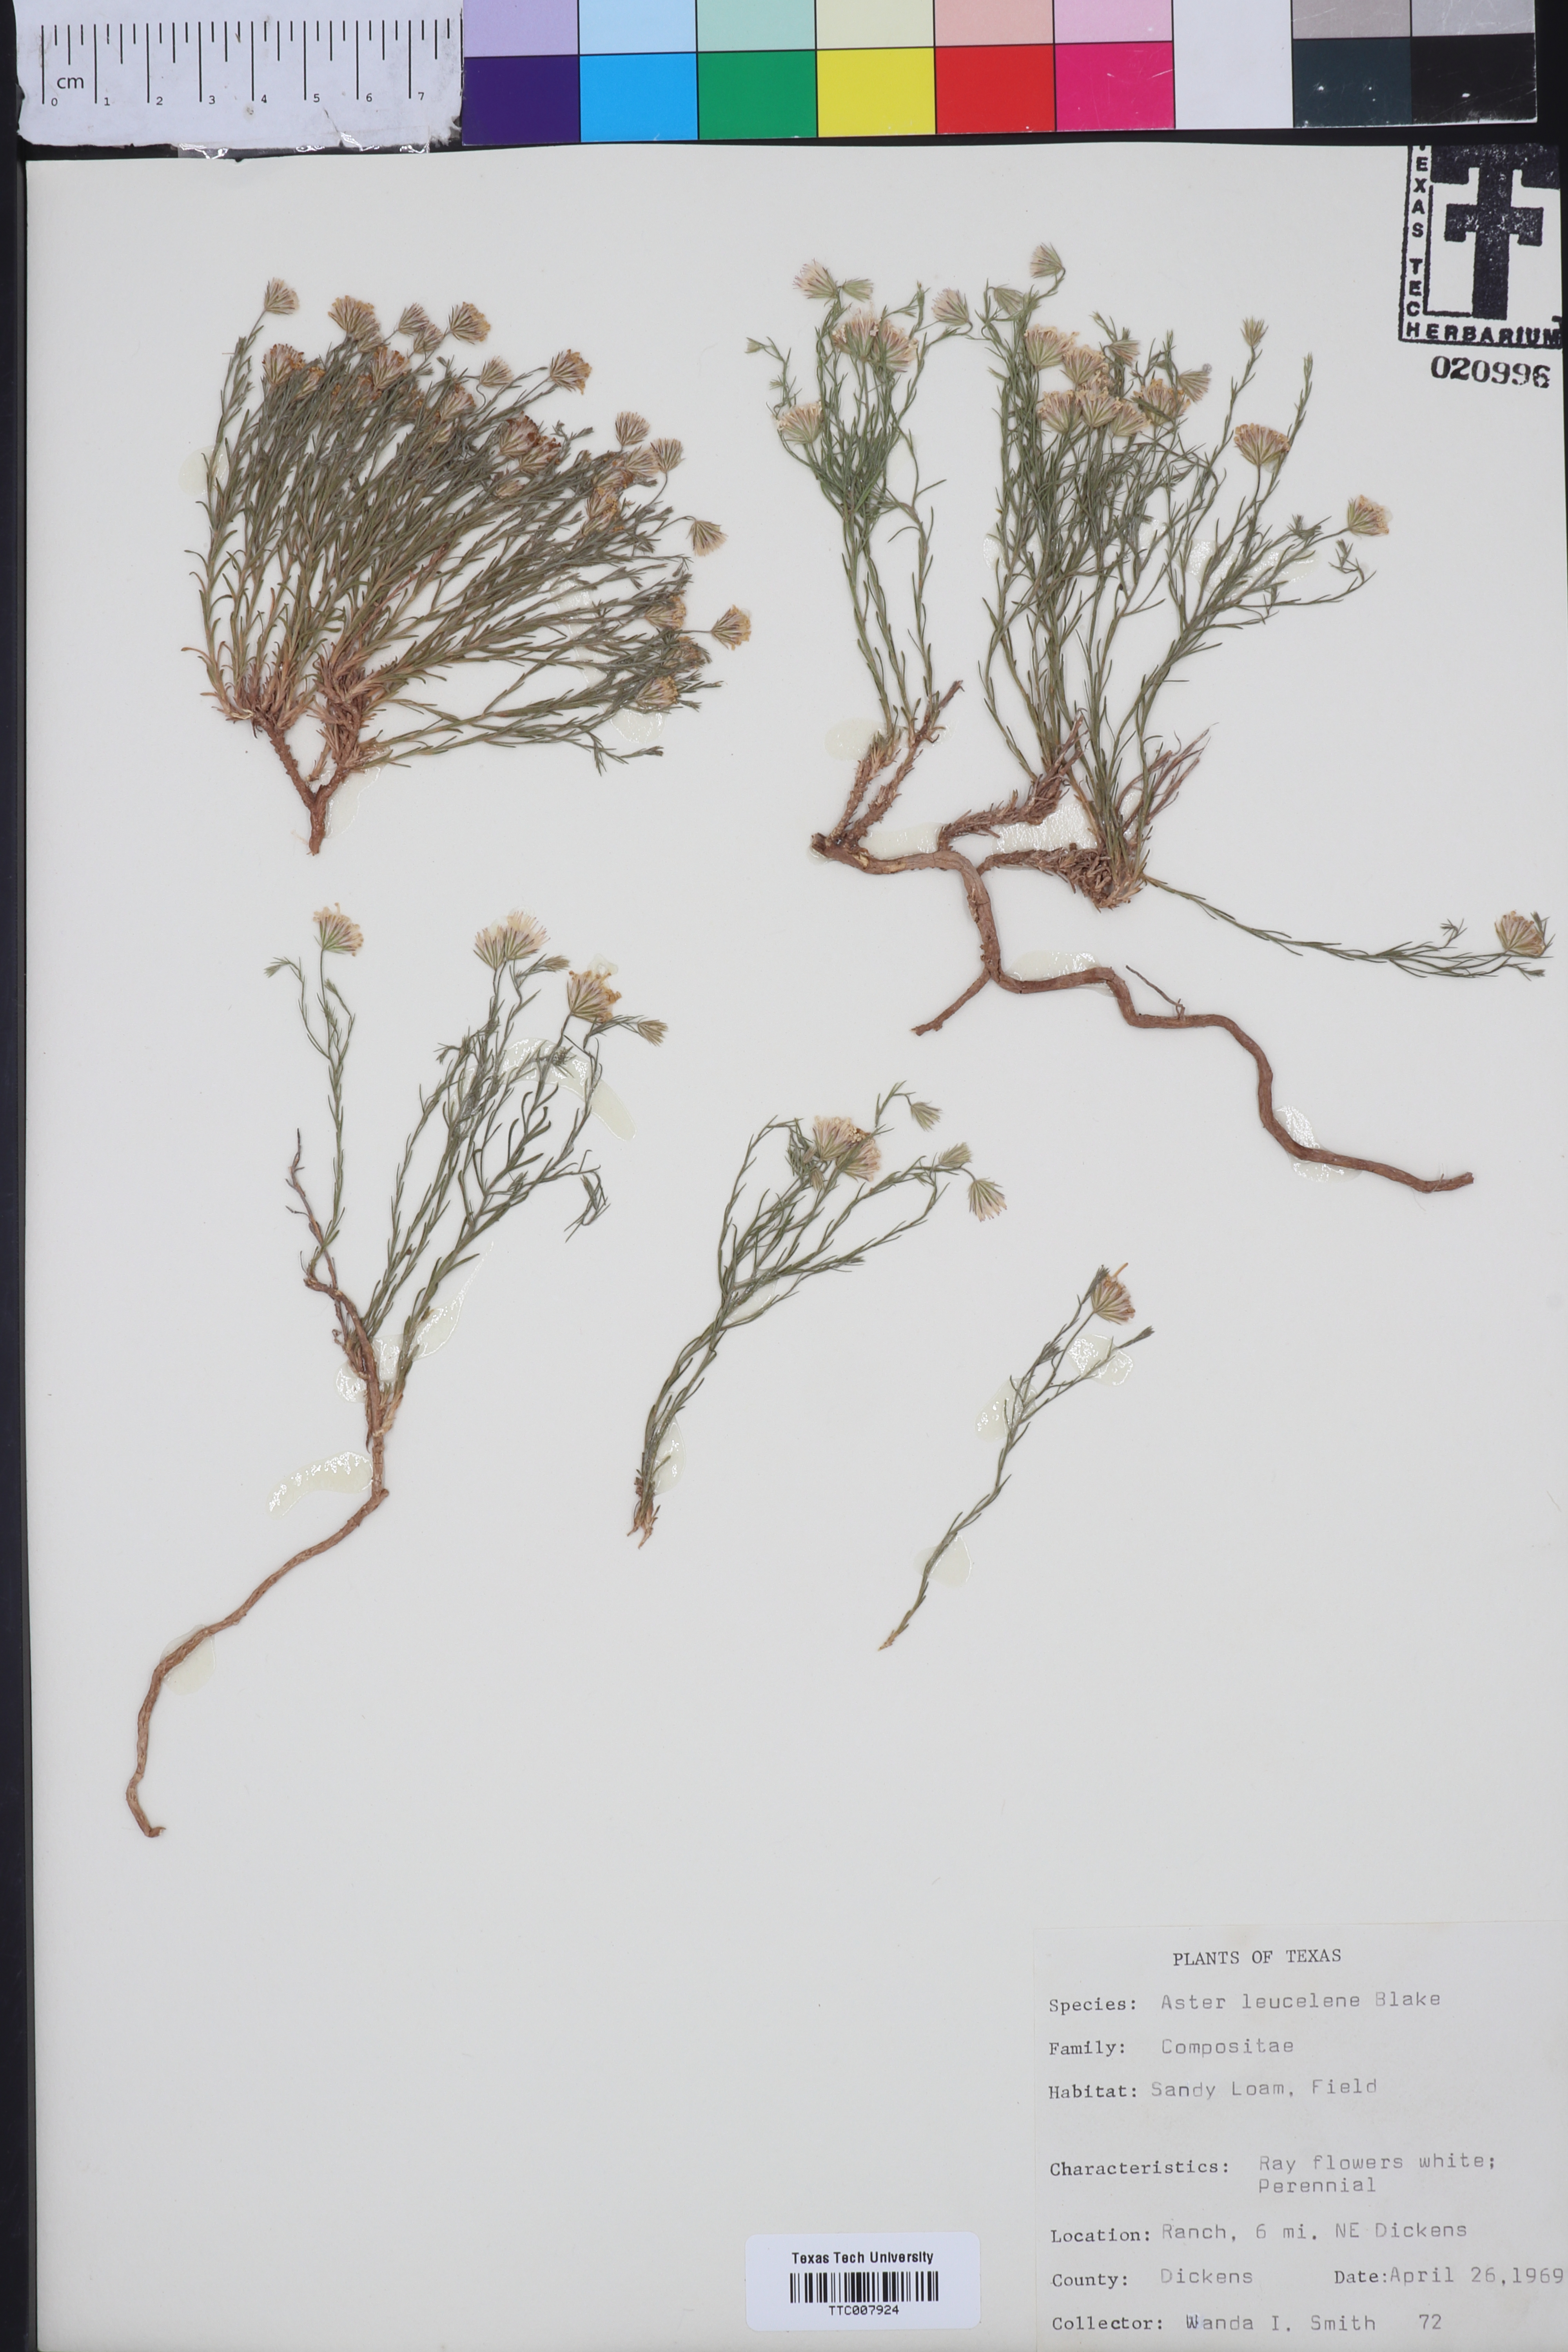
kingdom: Plantae
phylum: Tracheophyta
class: Magnoliopsida
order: Asterales
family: Asteraceae
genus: Chaetopappa
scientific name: Chaetopappa ericoides
